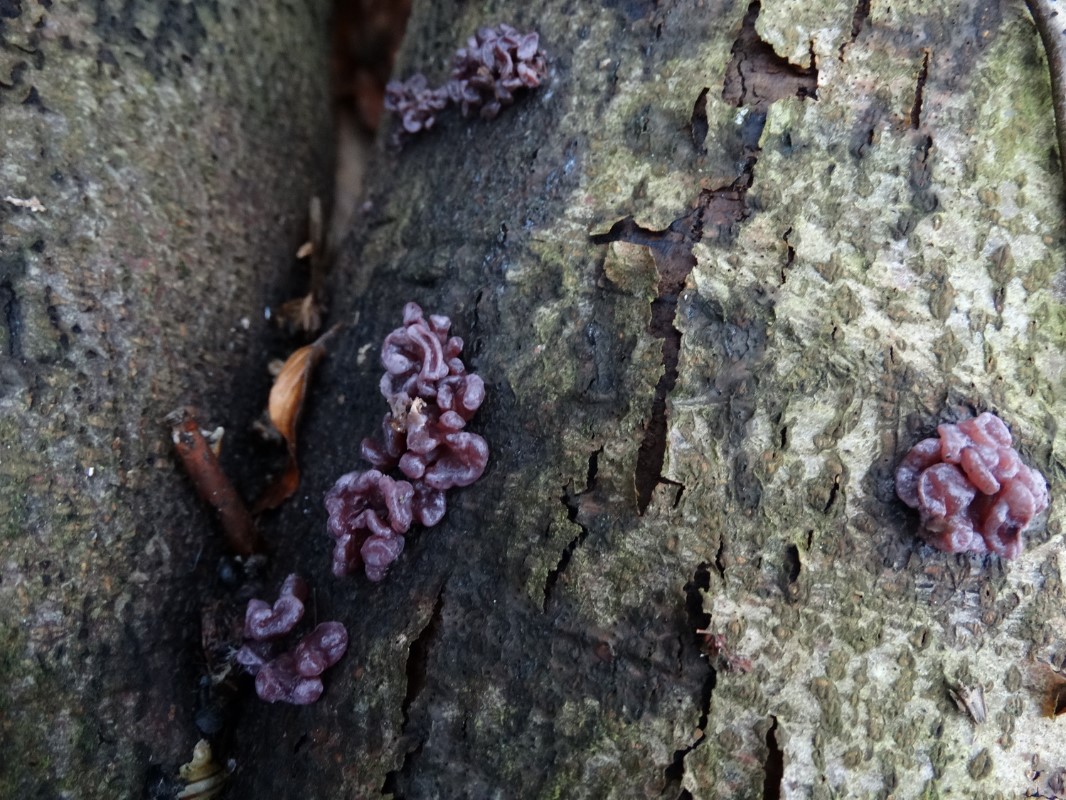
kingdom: Fungi
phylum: Ascomycota
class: Leotiomycetes
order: Helotiales
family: Gelatinodiscaceae
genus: Ascocoryne
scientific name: Ascocoryne sarcoides
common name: rødlilla sejskive
